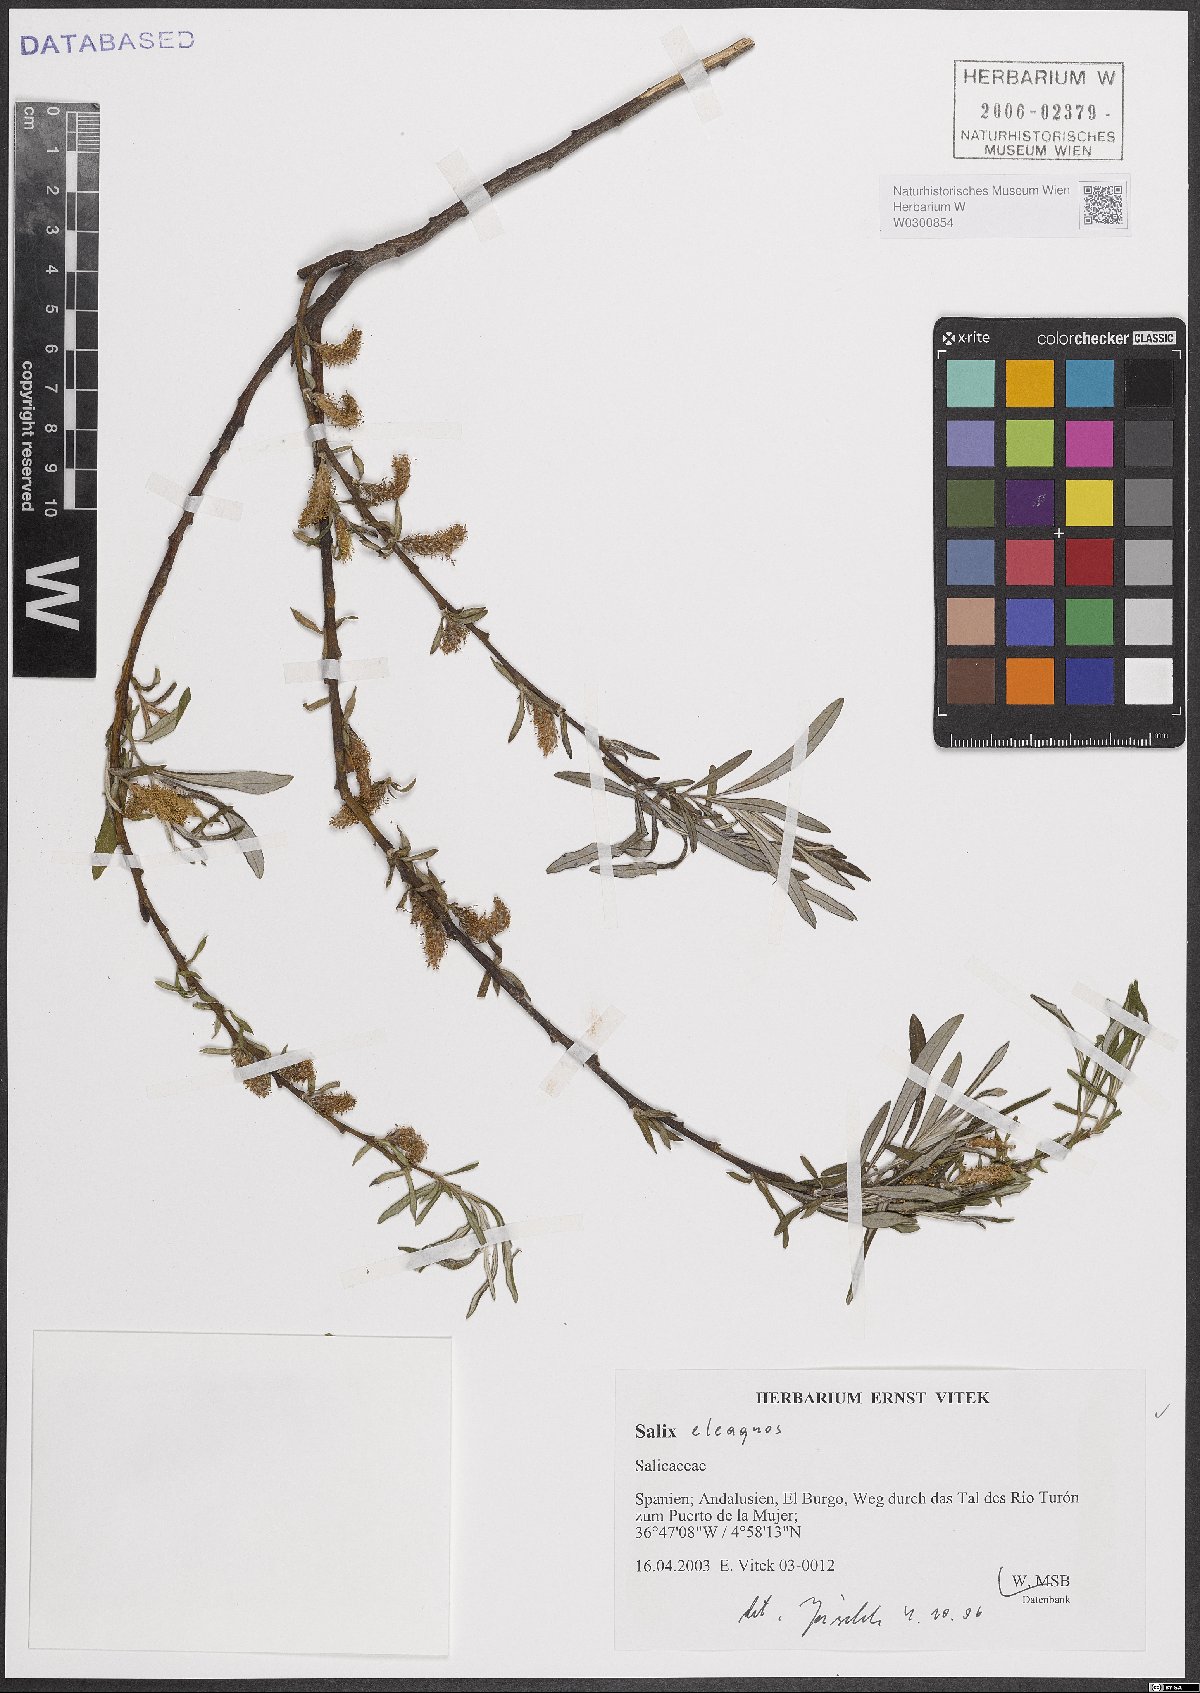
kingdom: Plantae
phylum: Tracheophyta
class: Magnoliopsida
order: Malpighiales
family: Salicaceae
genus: Salix
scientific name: Salix eleagnos
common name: Elaeagnus willow
